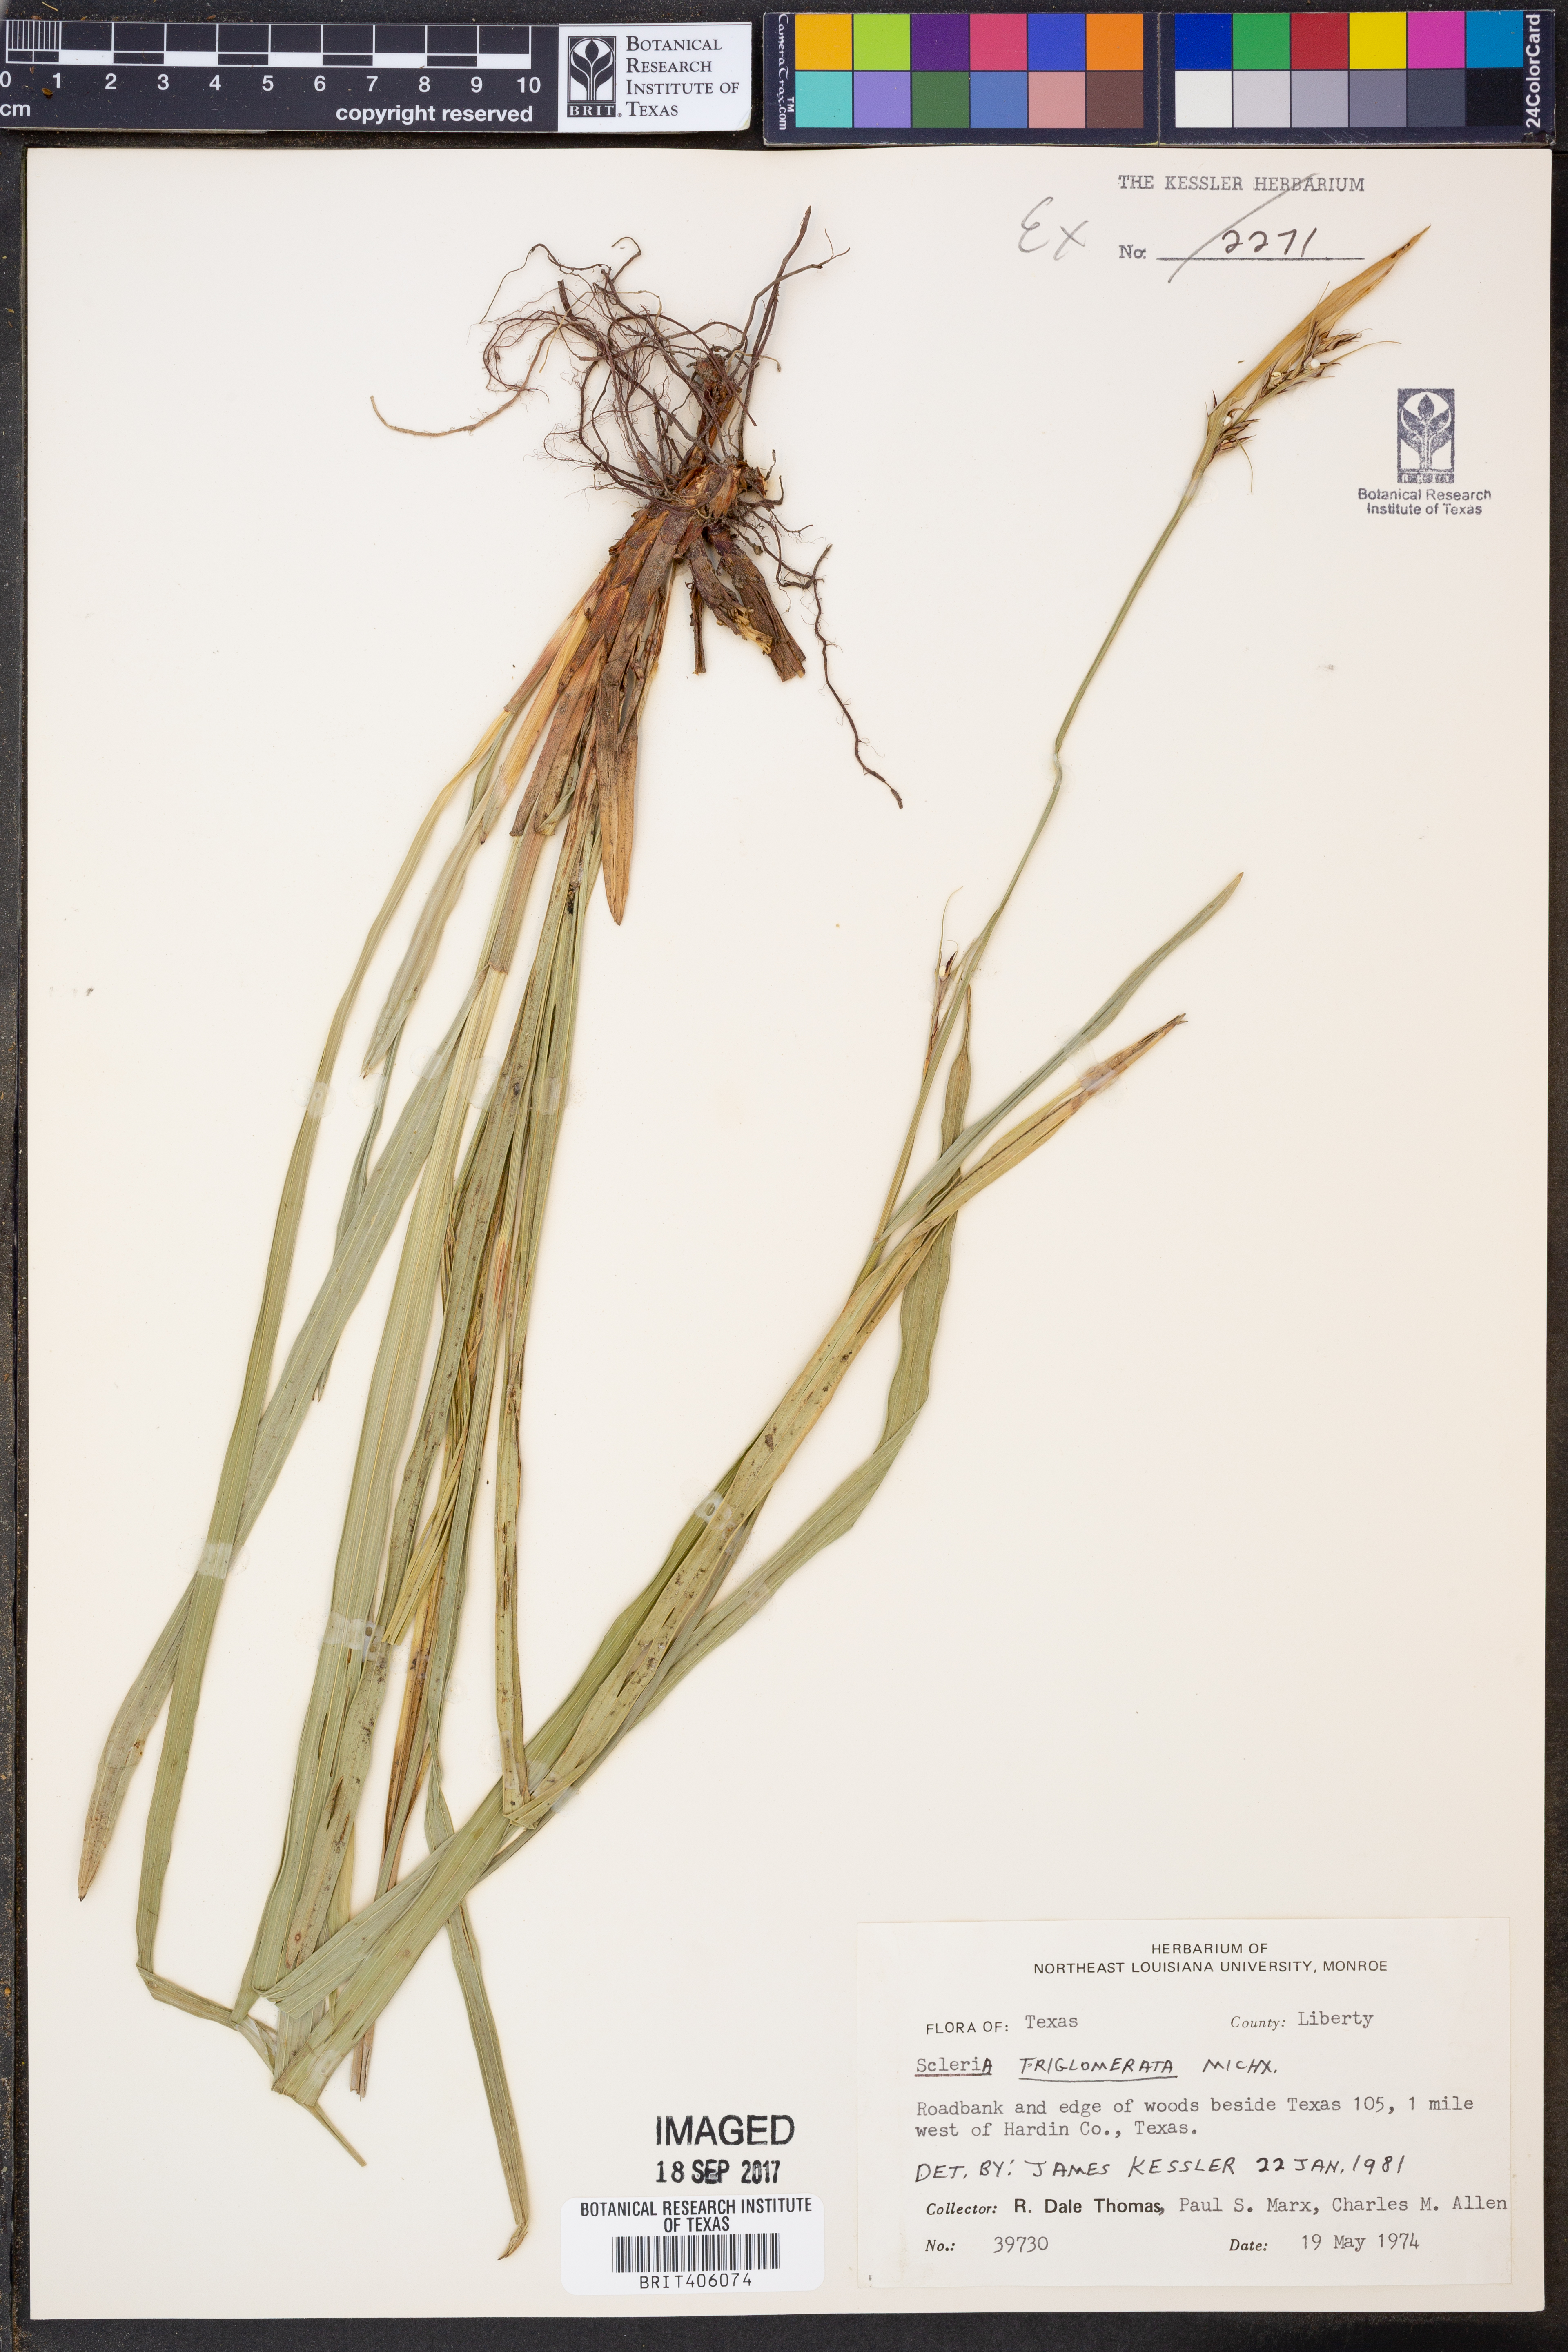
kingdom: Plantae
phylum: Tracheophyta
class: Liliopsida
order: Poales
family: Cyperaceae
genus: Scleria
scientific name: Scleria triglomerata
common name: Whip nutrush
